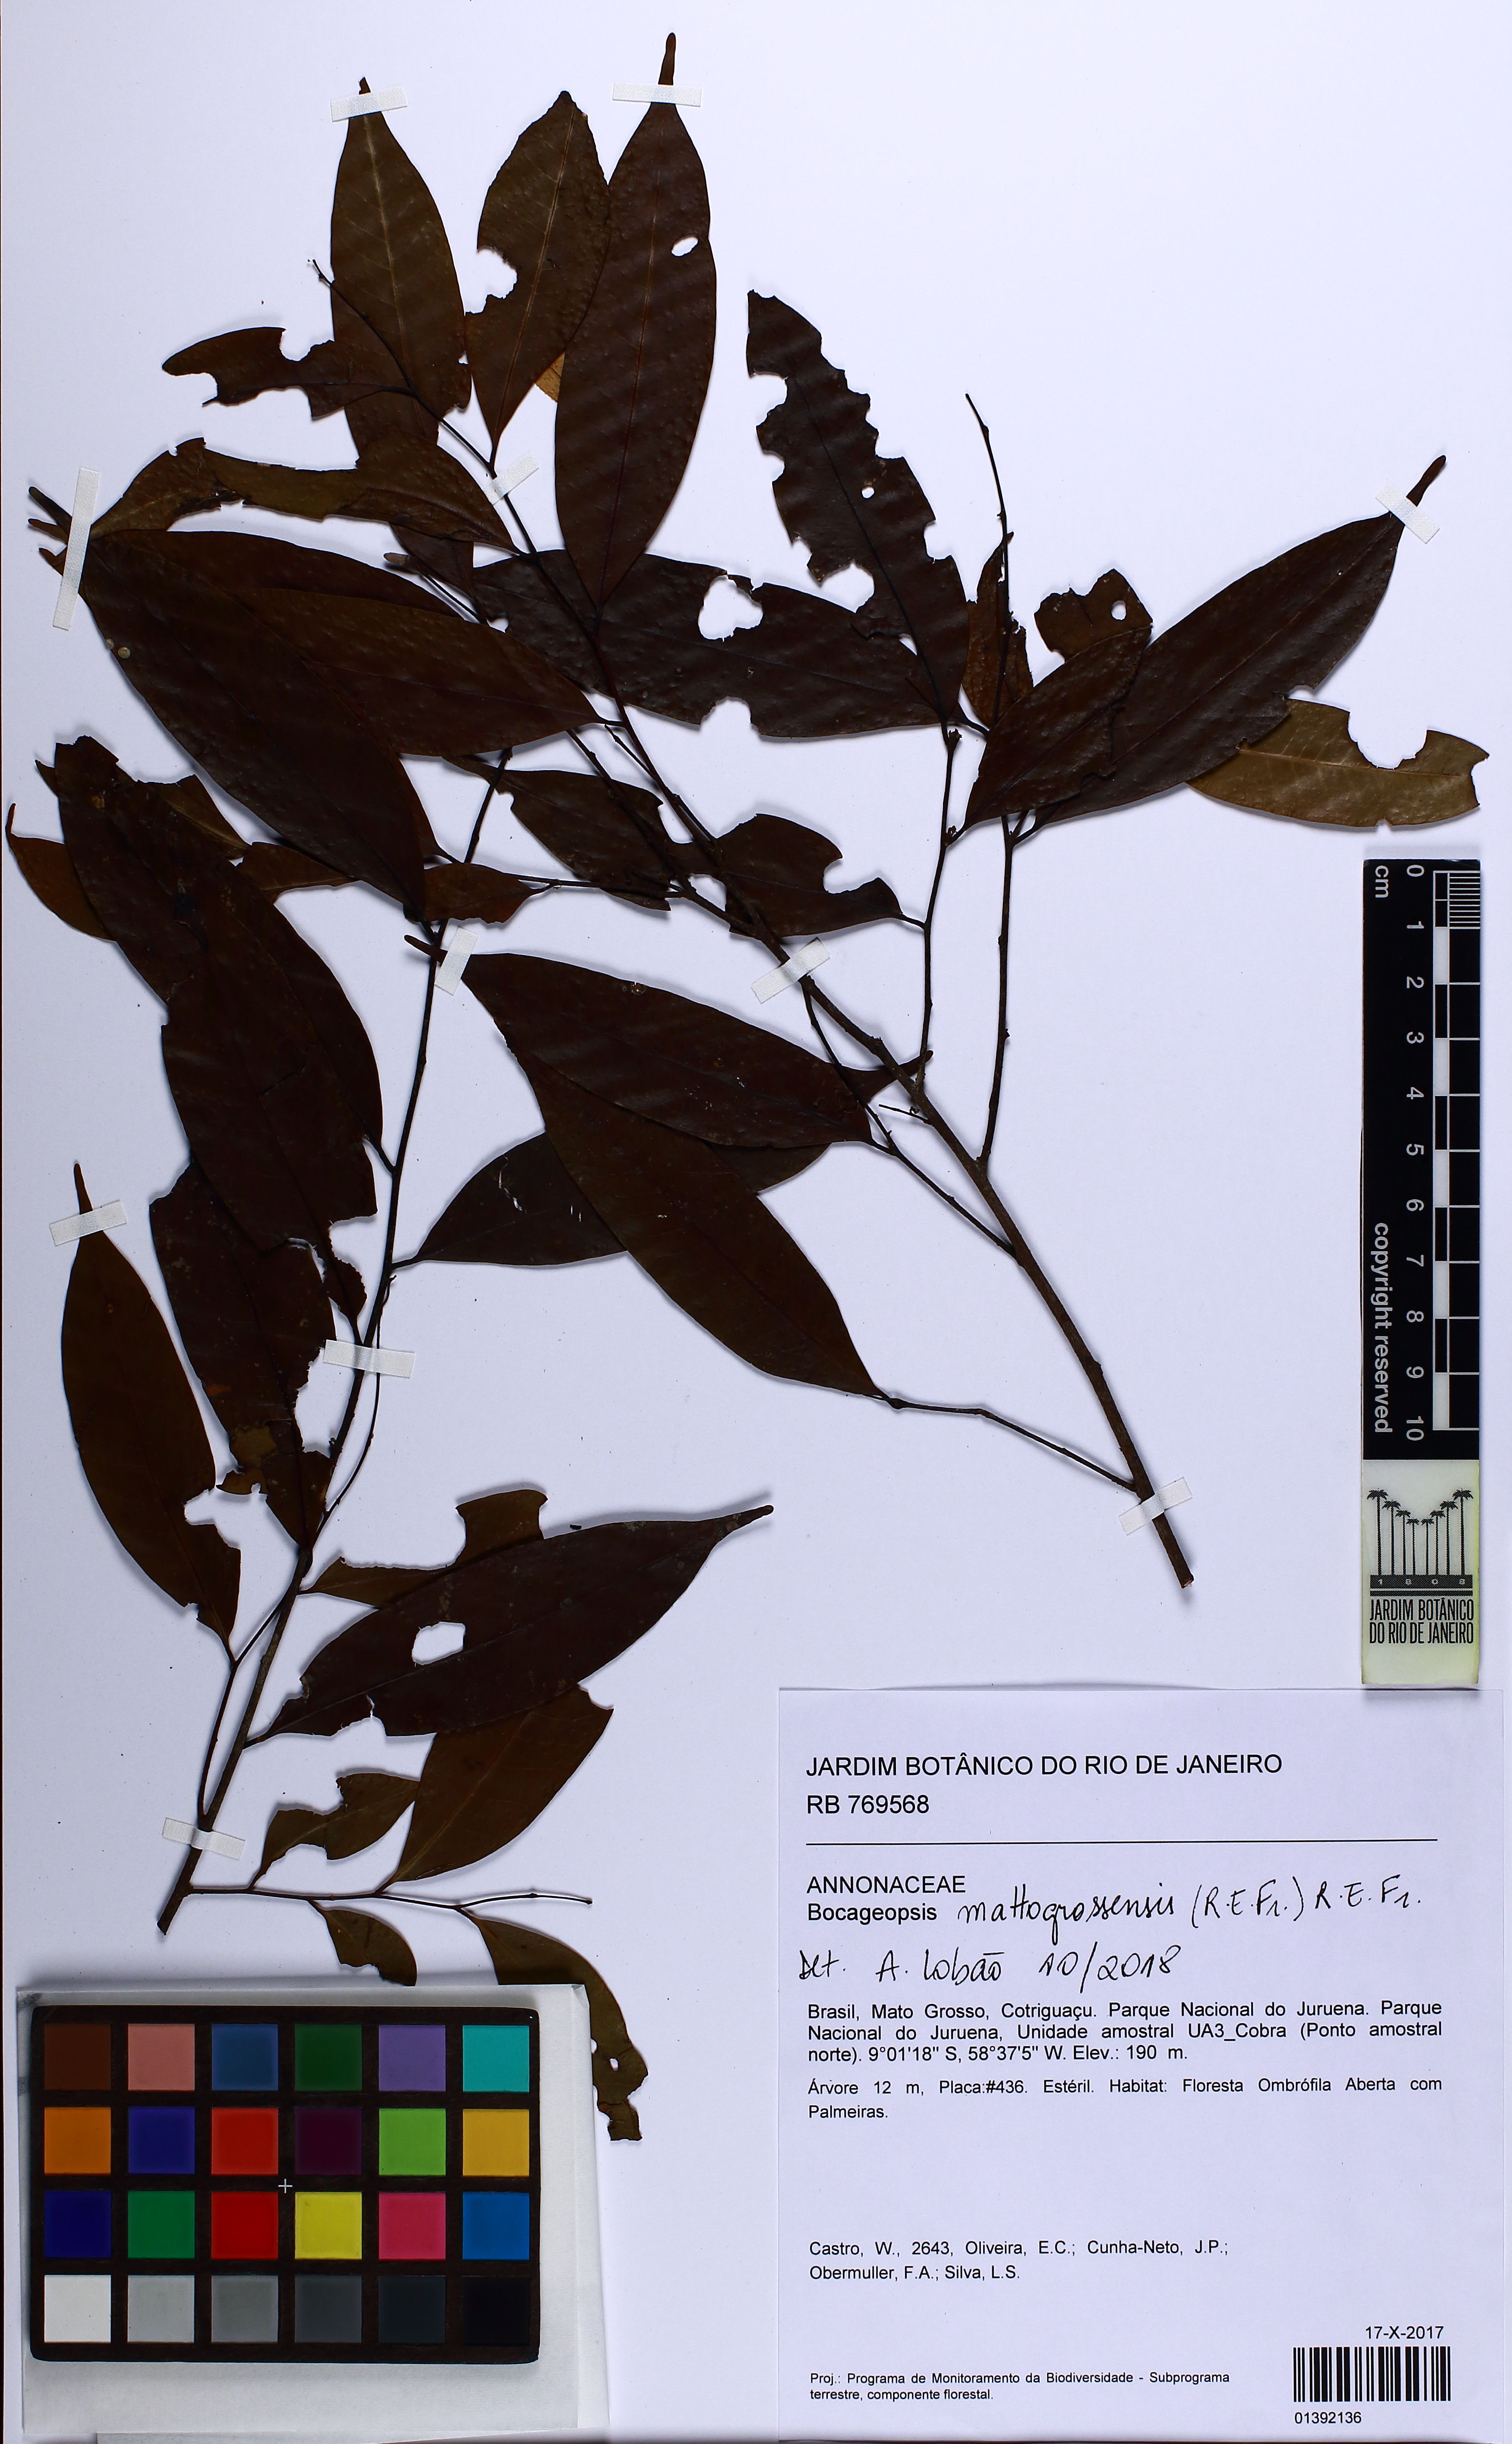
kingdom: Plantae
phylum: Tracheophyta
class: Magnoliopsida
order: Magnoliales
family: Annonaceae
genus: Bocageopsis
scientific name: Bocageopsis mattogrossensis
